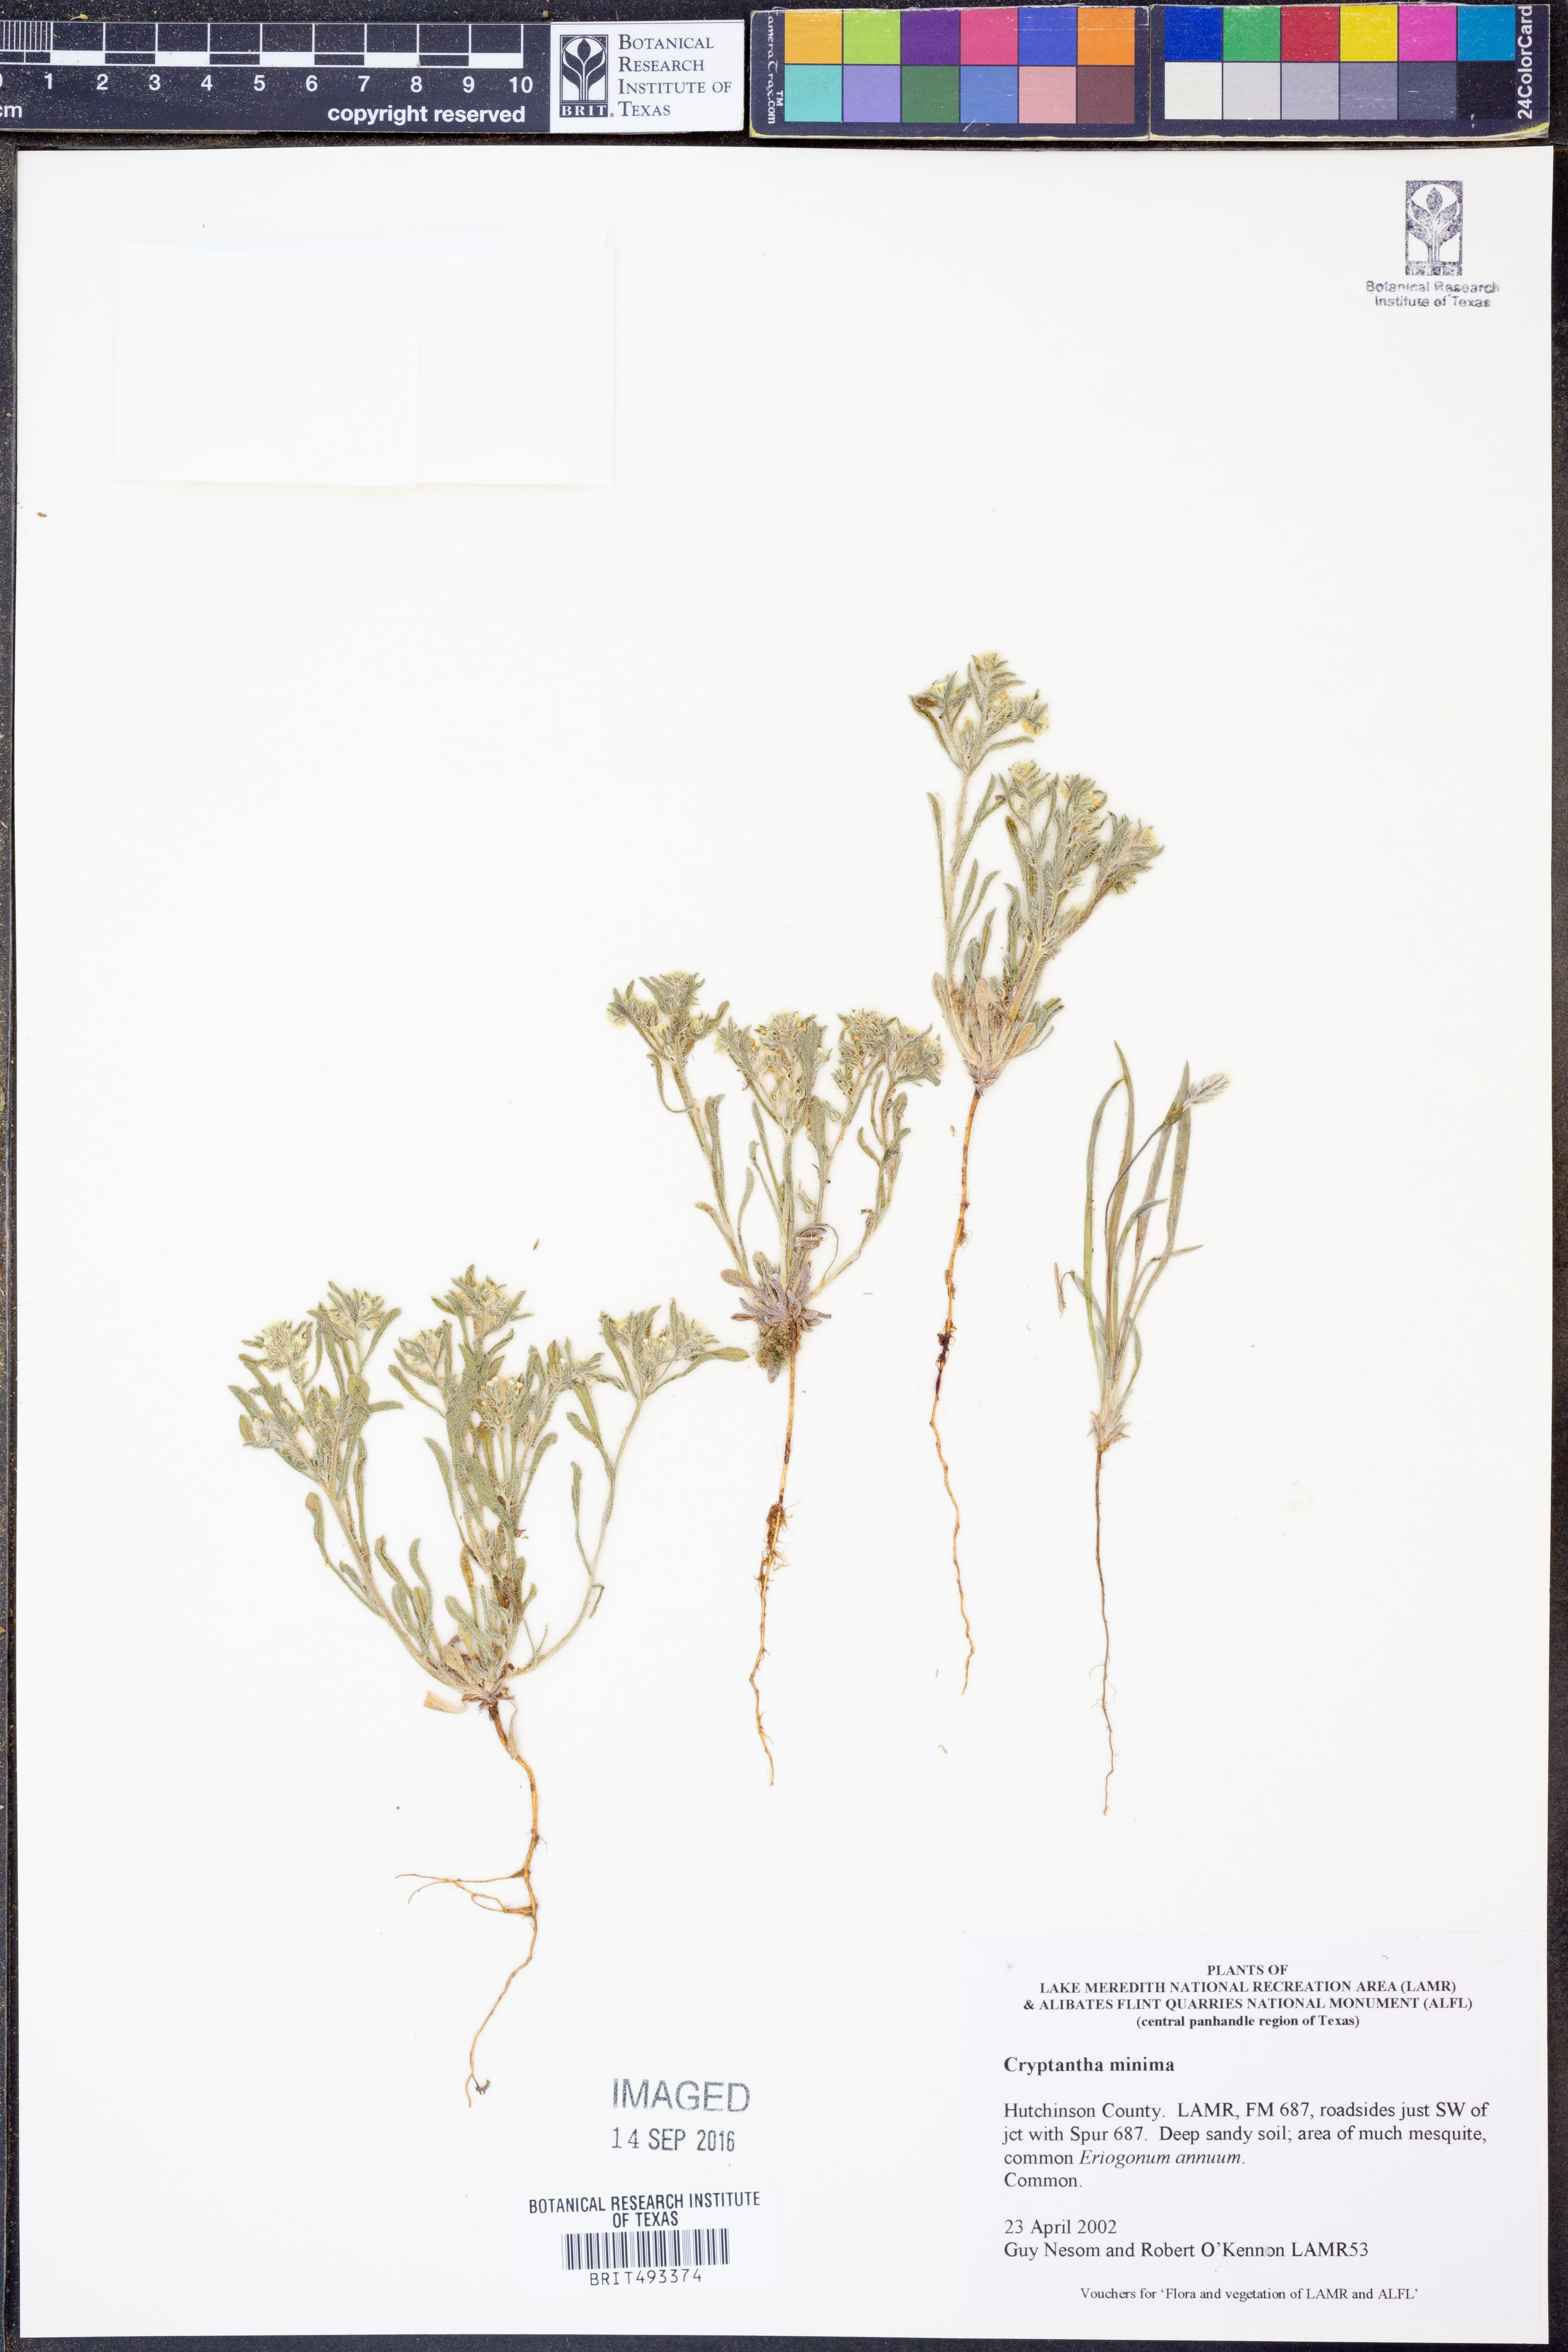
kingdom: Plantae
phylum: Tracheophyta
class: Magnoliopsida
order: Boraginales
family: Boraginaceae
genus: Cryptantha
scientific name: Cryptantha minima
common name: Little cat's-eye
